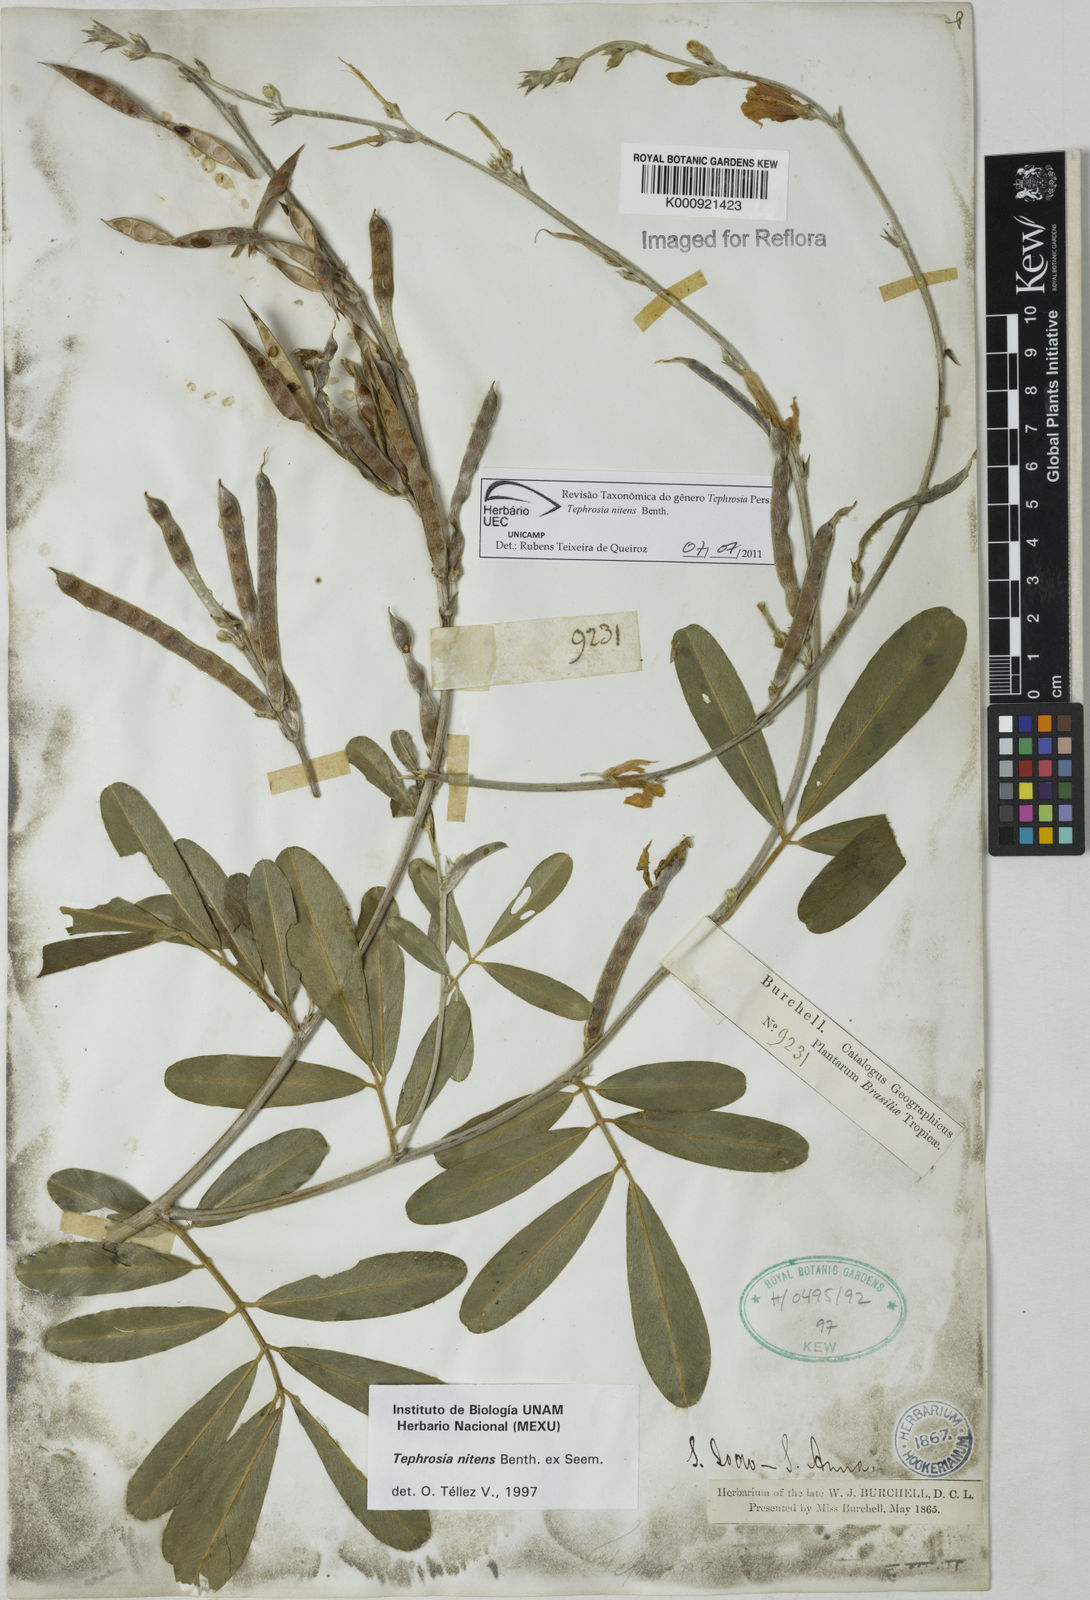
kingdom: Plantae
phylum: Tracheophyta
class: Magnoliopsida
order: Fabales
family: Fabaceae
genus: Tephrosia
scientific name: Tephrosia nitens
